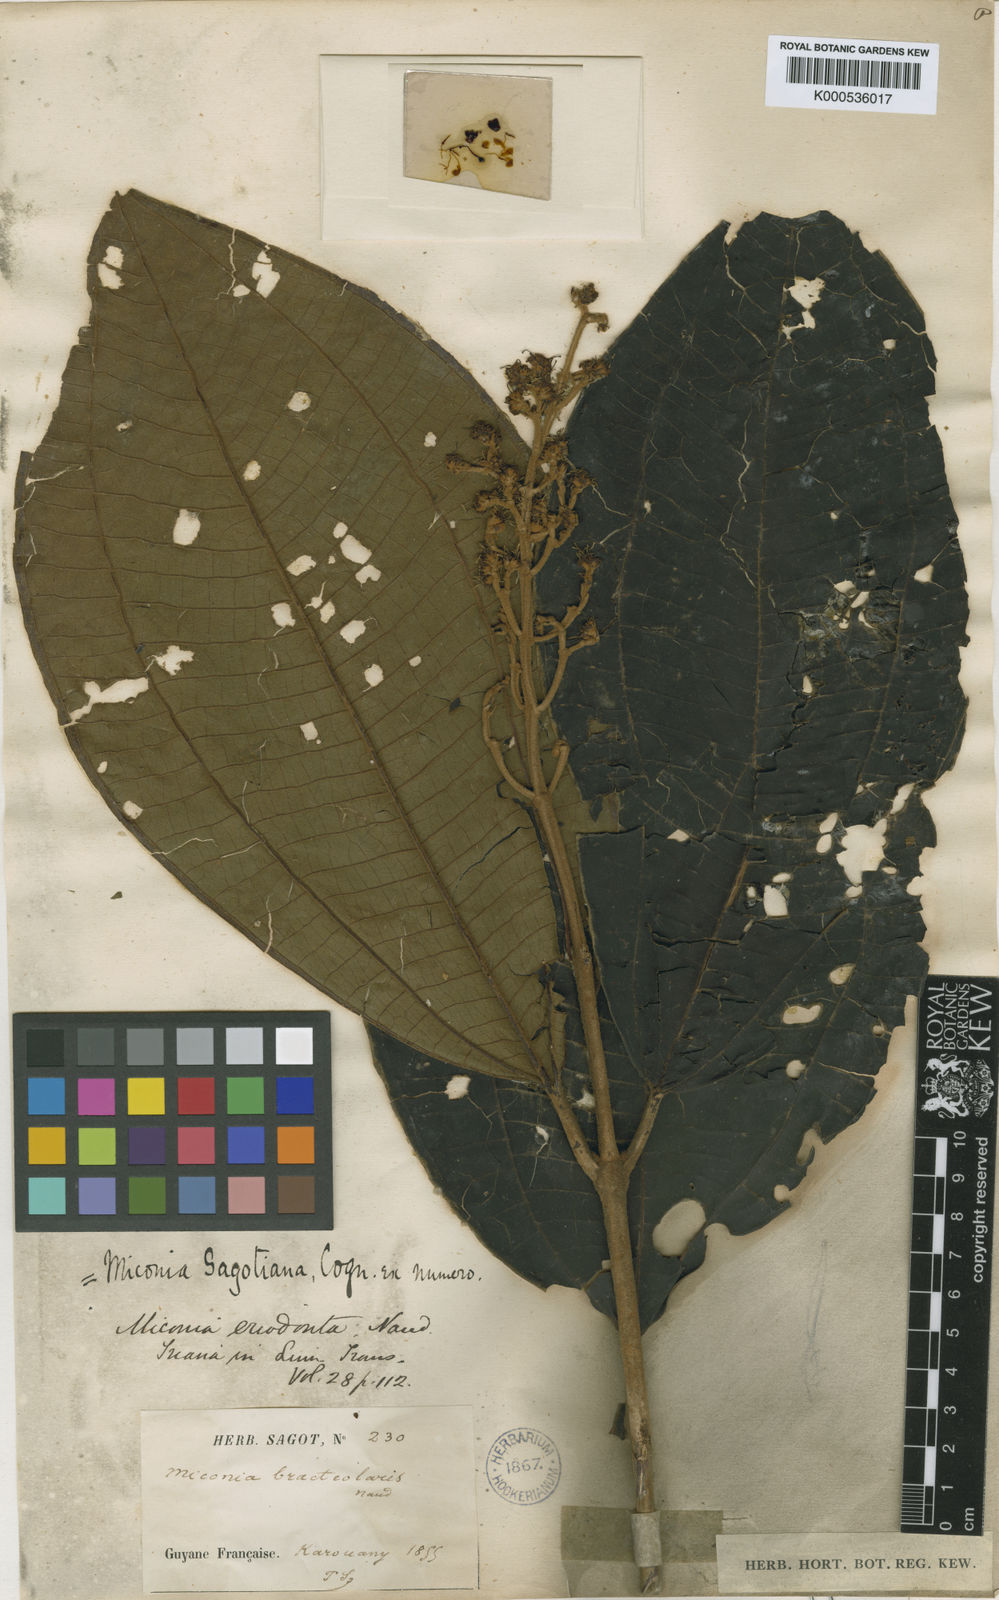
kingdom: Plantae
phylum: Tracheophyta
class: Magnoliopsida
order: Myrtales
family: Melastomataceae
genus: Miconia
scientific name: Miconia sagotiana
